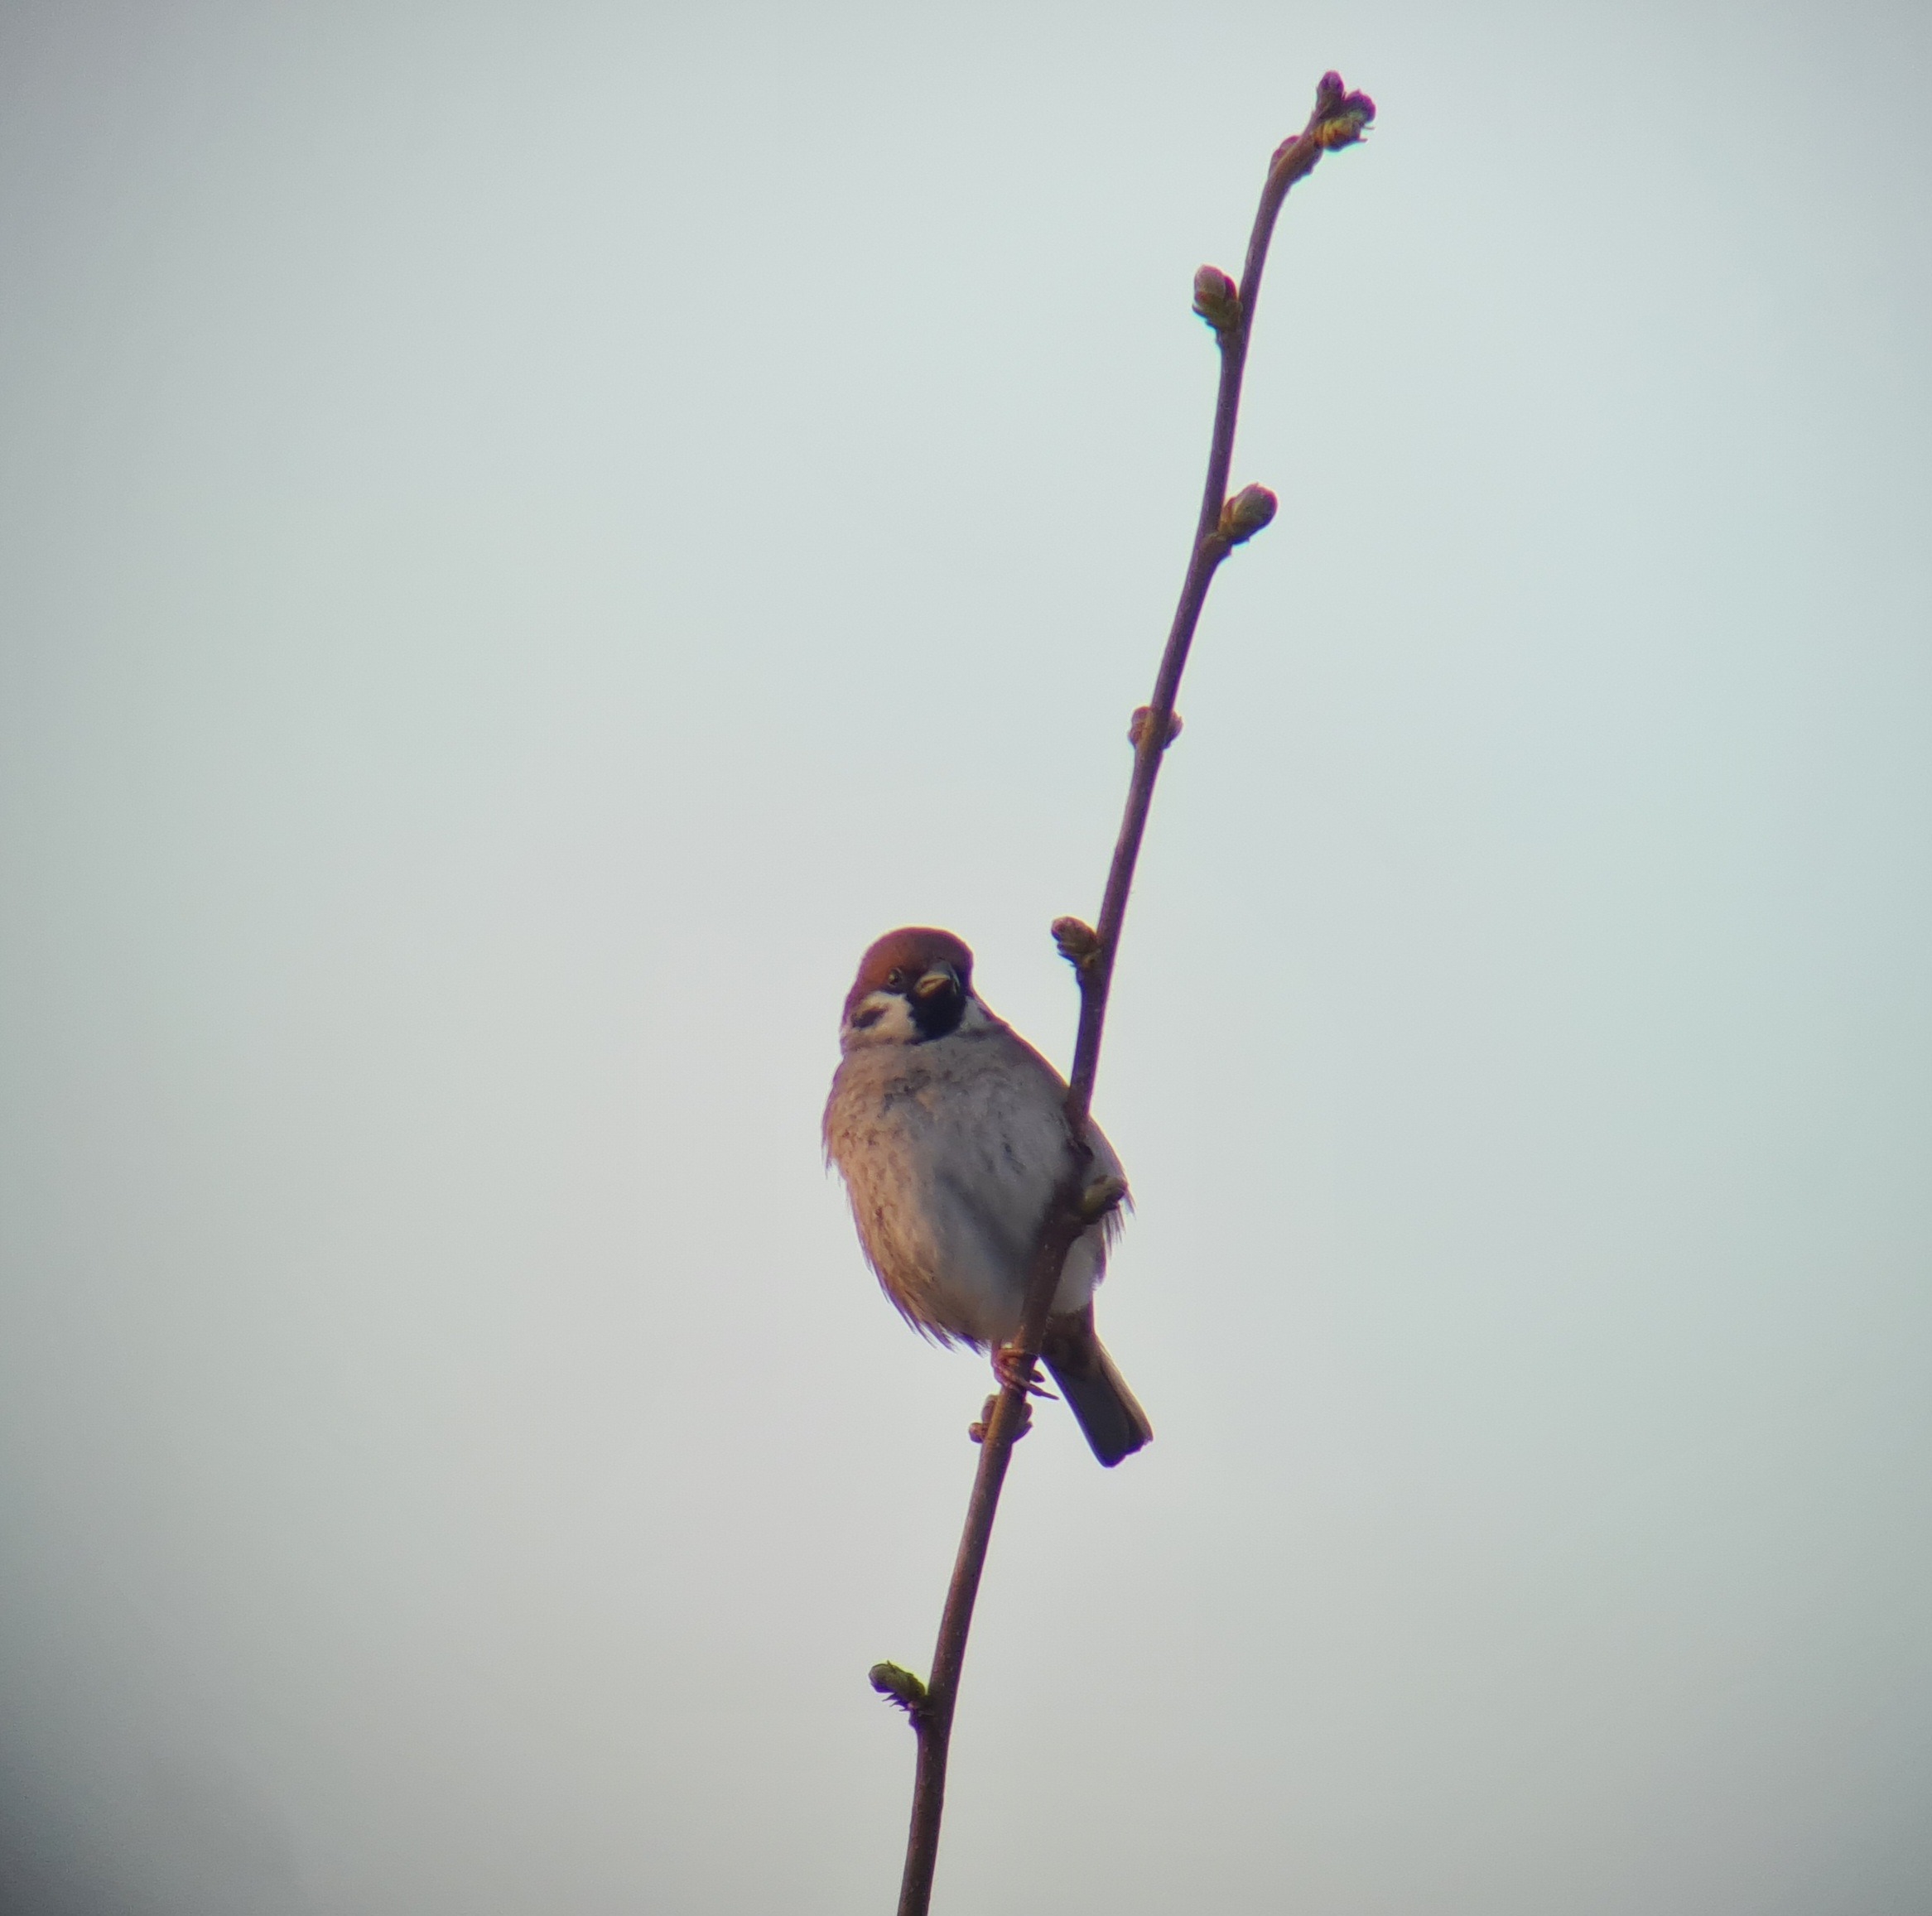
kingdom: Animalia
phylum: Chordata
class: Aves
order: Passeriformes
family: Passeridae
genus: Passer
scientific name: Passer montanus
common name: Skovspurv
